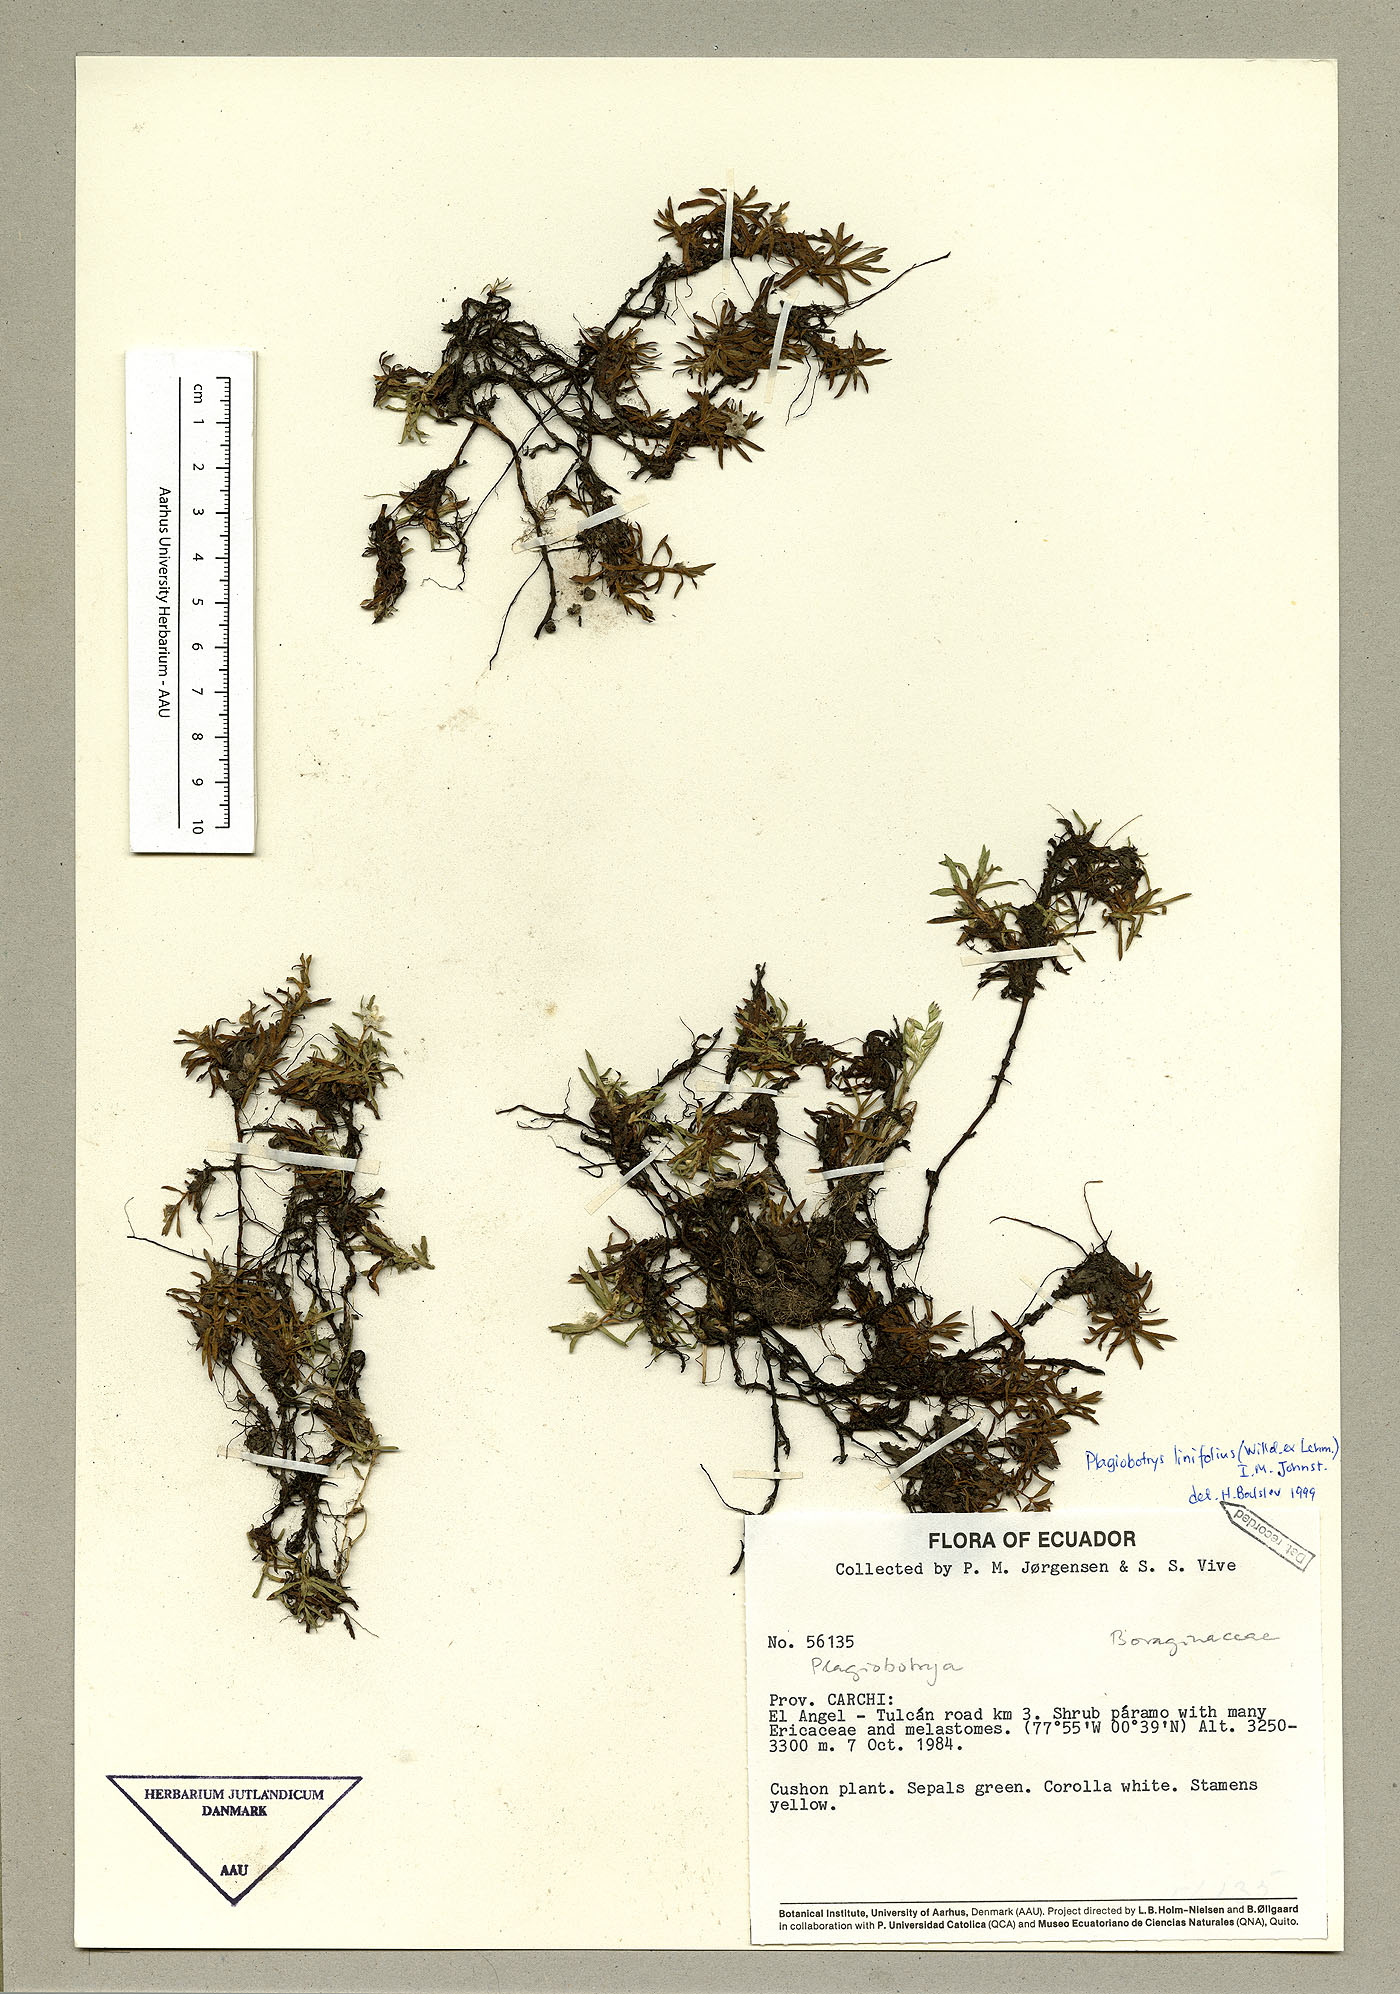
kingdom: Plantae
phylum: Tracheophyta
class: Magnoliopsida
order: Boraginales
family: Boraginaceae
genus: Plagiobothrys
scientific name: Plagiobothrys linifolius
